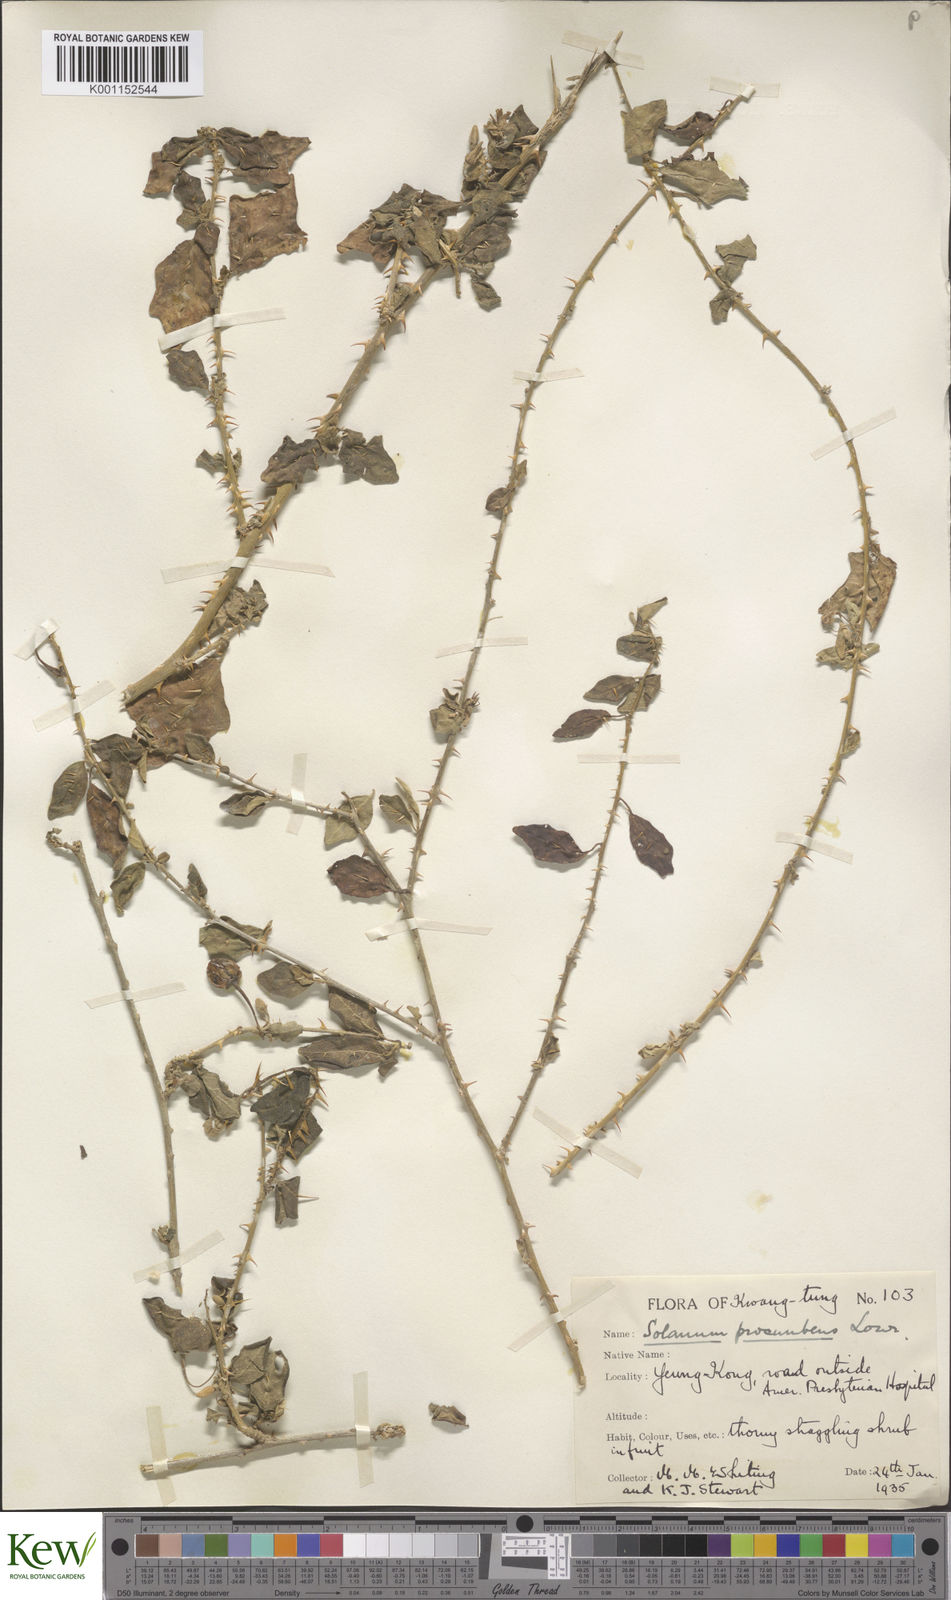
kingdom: Plantae
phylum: Tracheophyta
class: Magnoliopsida
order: Solanales
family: Solanaceae
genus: Solanum
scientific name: Solanum procumbens
